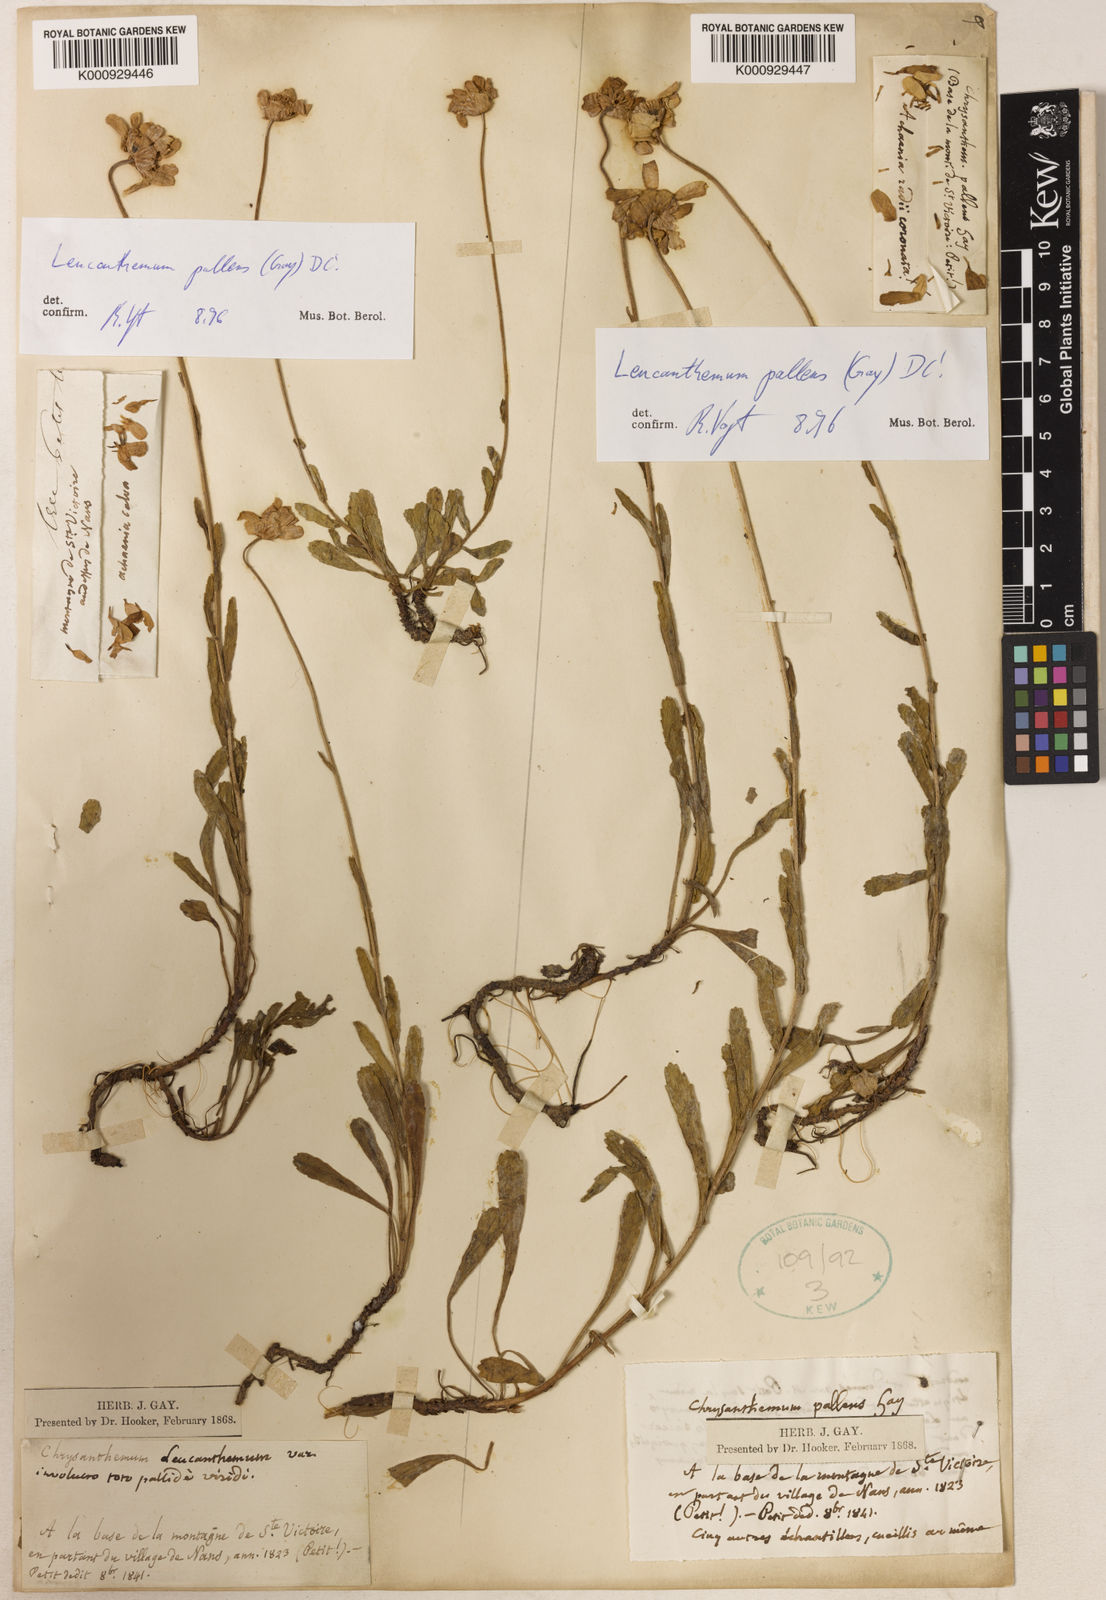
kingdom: Plantae
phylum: Tracheophyta
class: Magnoliopsida
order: Asterales
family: Asteraceae
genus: Leucanthemum
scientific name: Leucanthemum pallens
